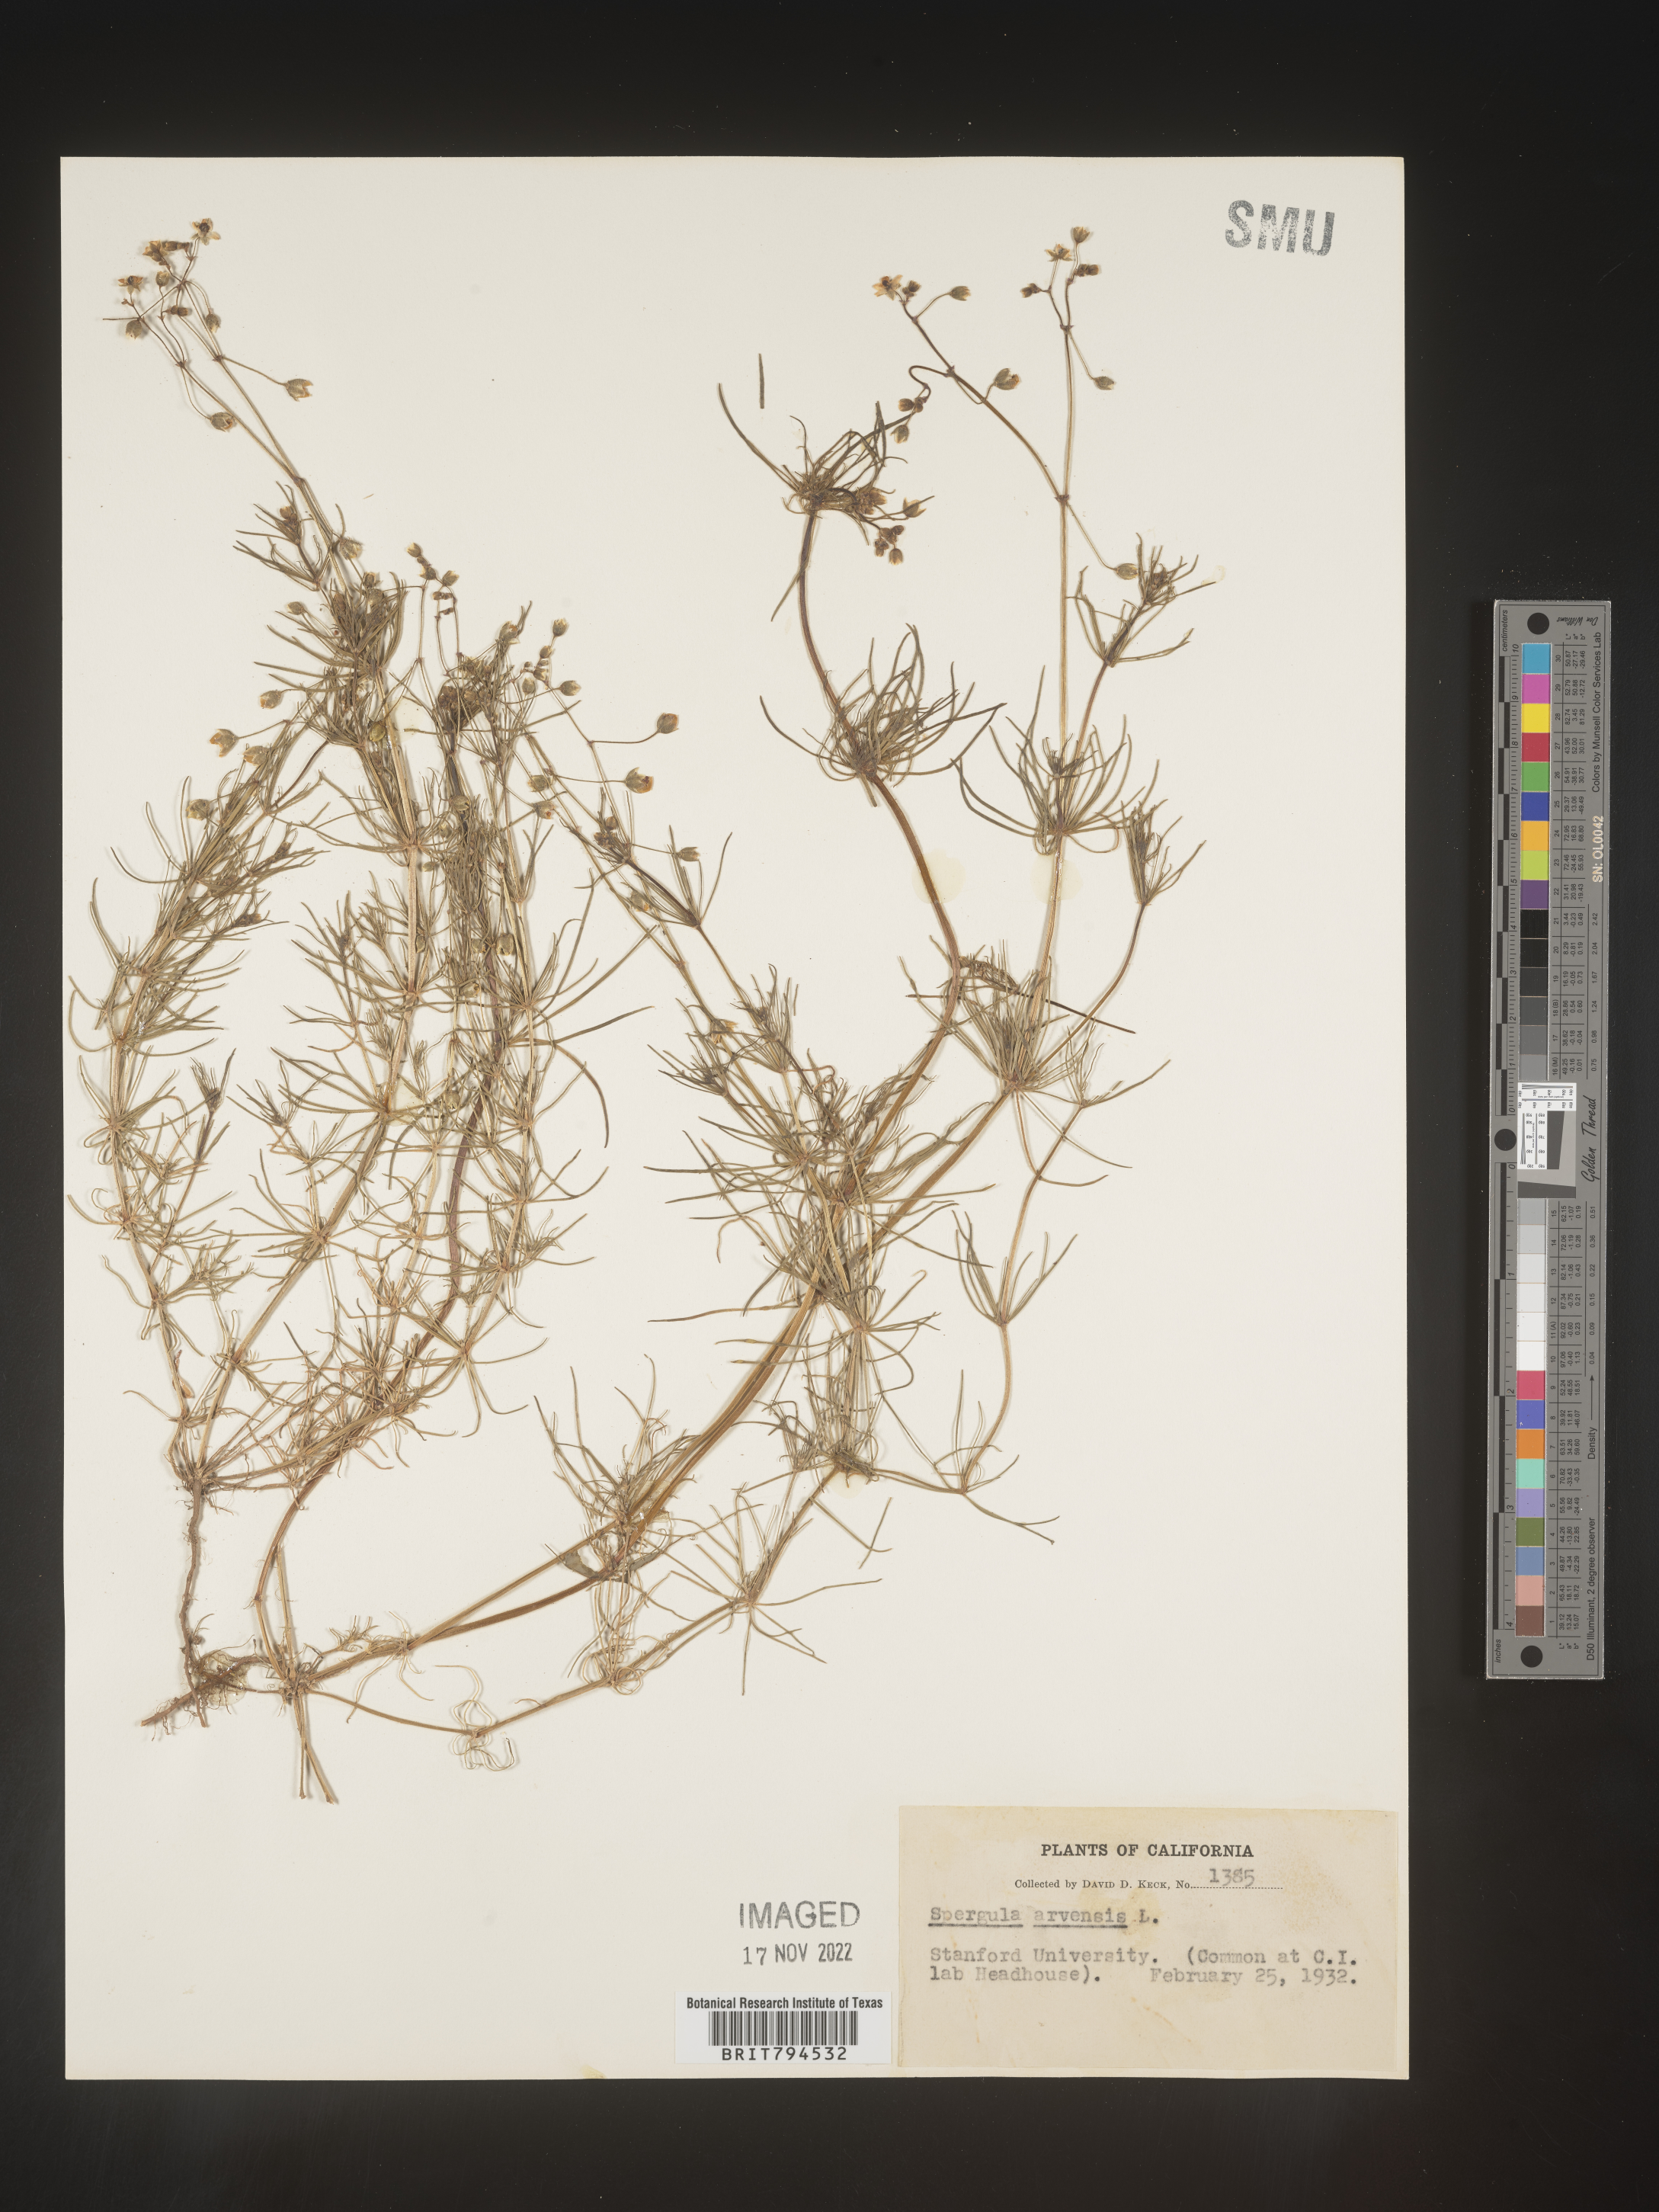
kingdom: Plantae
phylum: Tracheophyta
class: Magnoliopsida
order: Caryophyllales
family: Caryophyllaceae
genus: Spergula
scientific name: Spergula arvensis
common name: Corn spurrey
